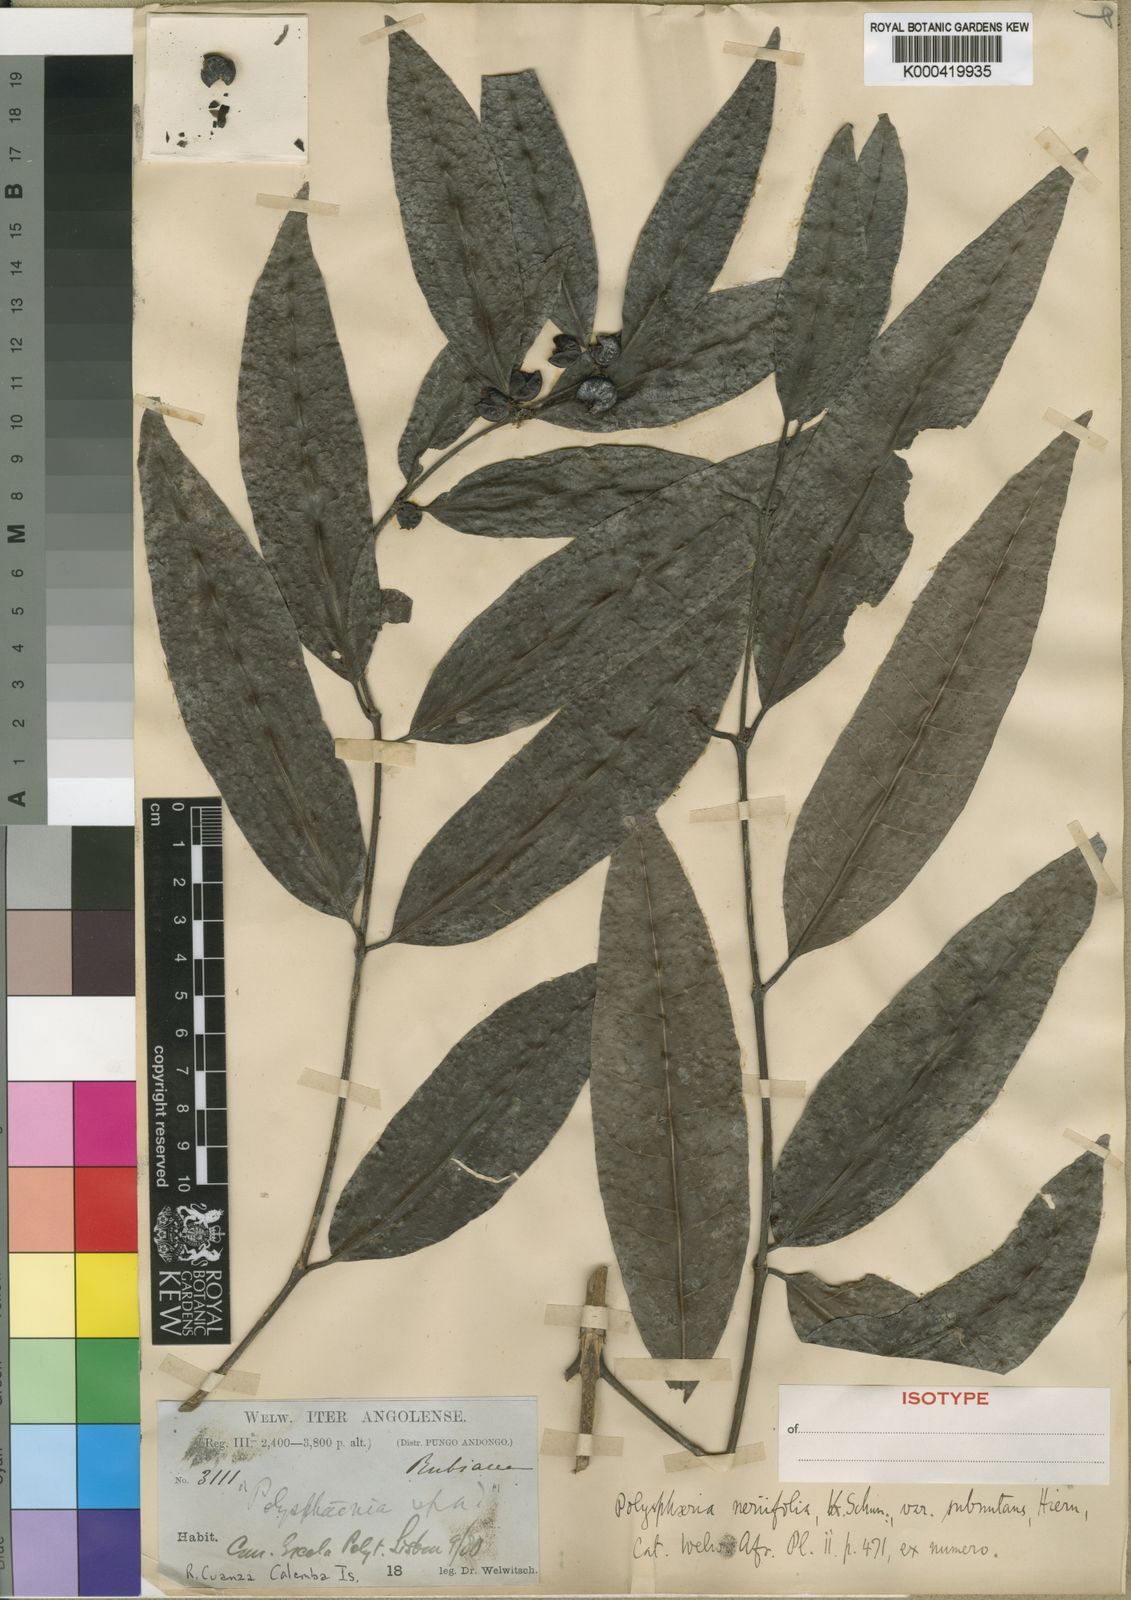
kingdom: Plantae
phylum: Tracheophyta
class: Magnoliopsida
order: Gentianales
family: Rubiaceae
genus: Polysphaeria
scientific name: Polysphaeria lanceolata
